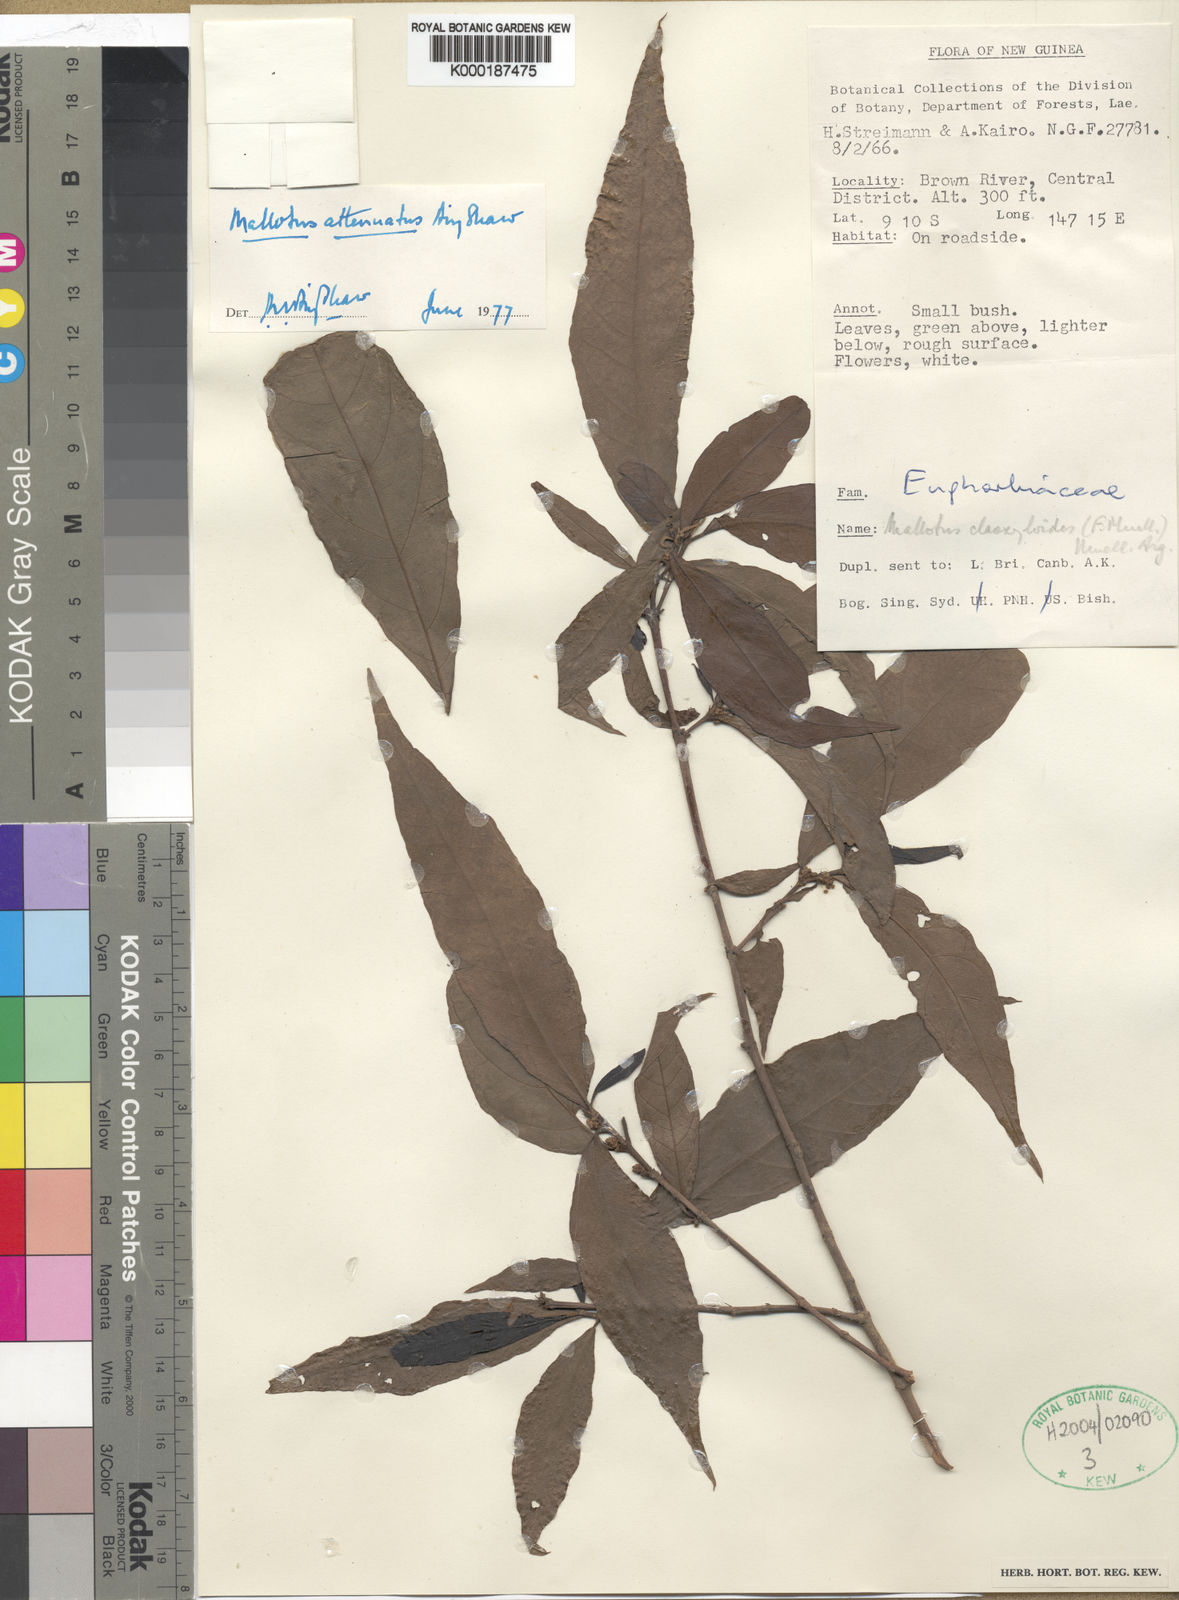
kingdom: Plantae
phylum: Tracheophyta
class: Magnoliopsida
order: Malpighiales
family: Euphorbiaceae
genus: Mallotus
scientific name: Mallotus attenuatus
